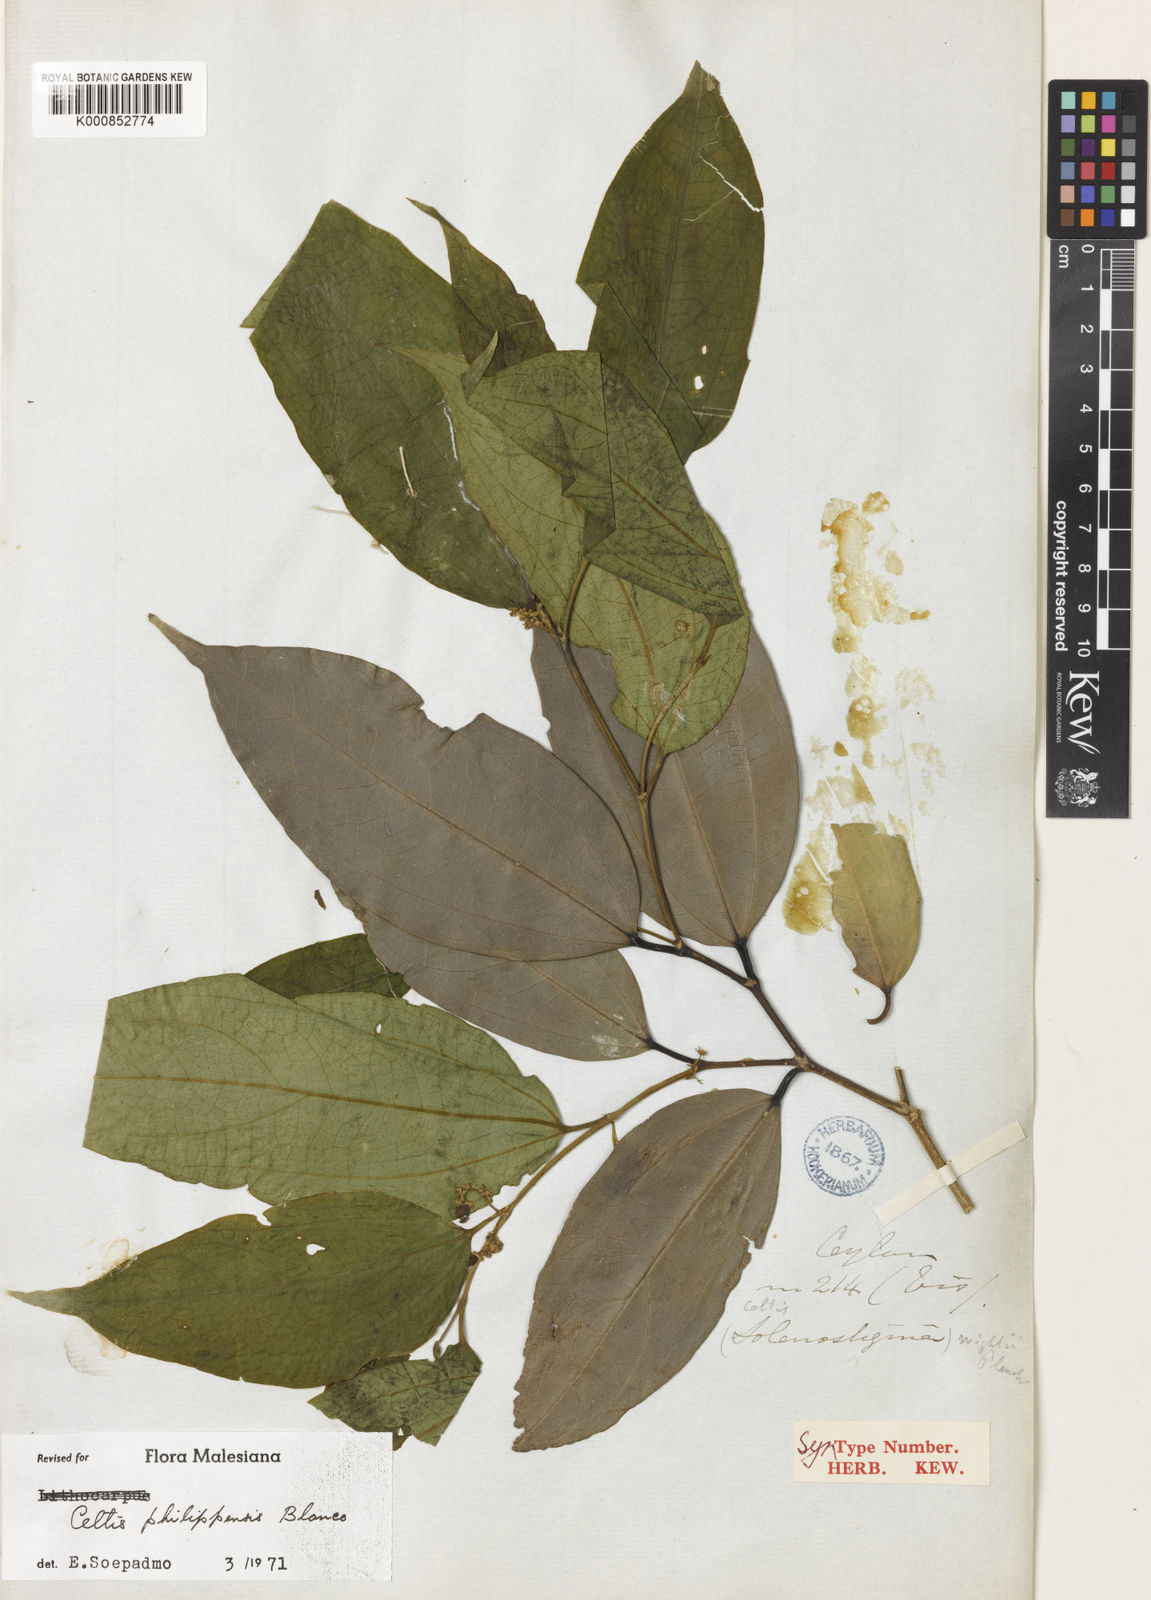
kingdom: Plantae
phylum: Tracheophyta
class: Magnoliopsida
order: Rosales
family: Cannabaceae
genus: Celtis
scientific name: Celtis philippensis
